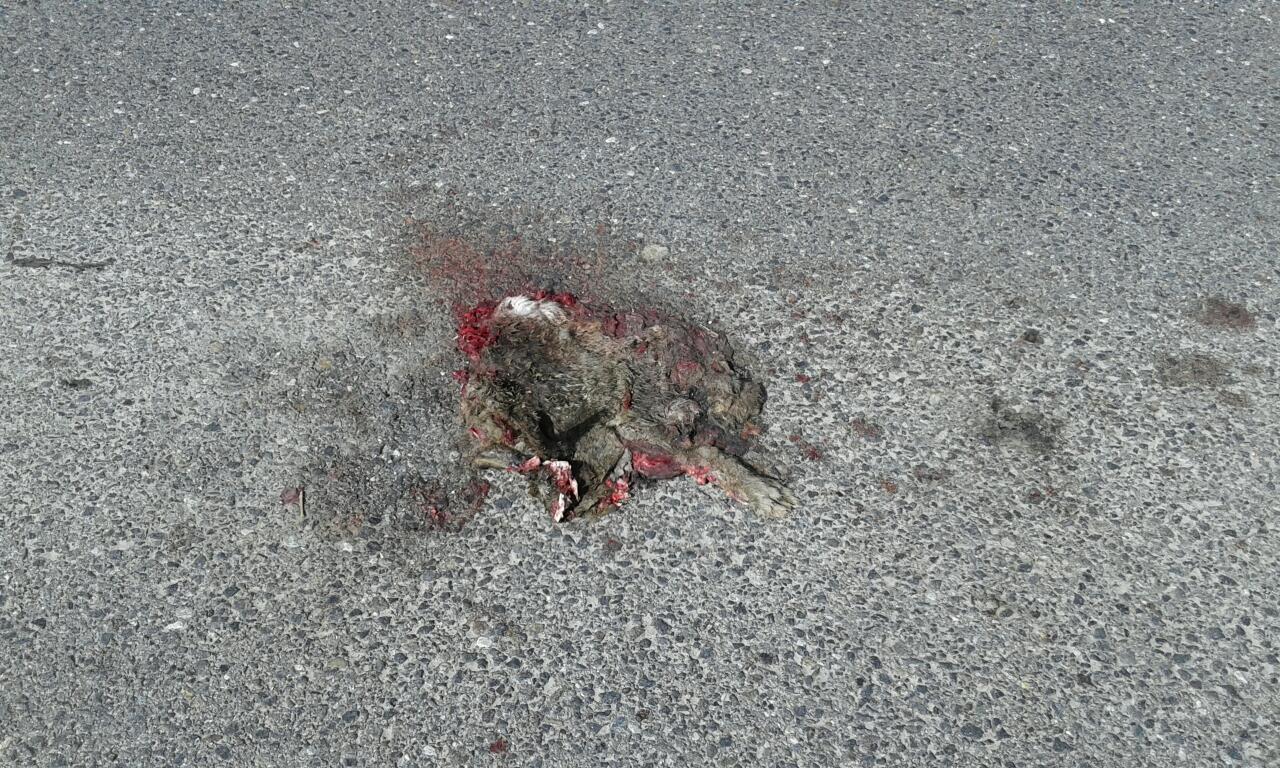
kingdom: Animalia
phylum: Chordata
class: Mammalia
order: Lagomorpha
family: Leporidae
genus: Lepus
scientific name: Lepus europaeus
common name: European hare
